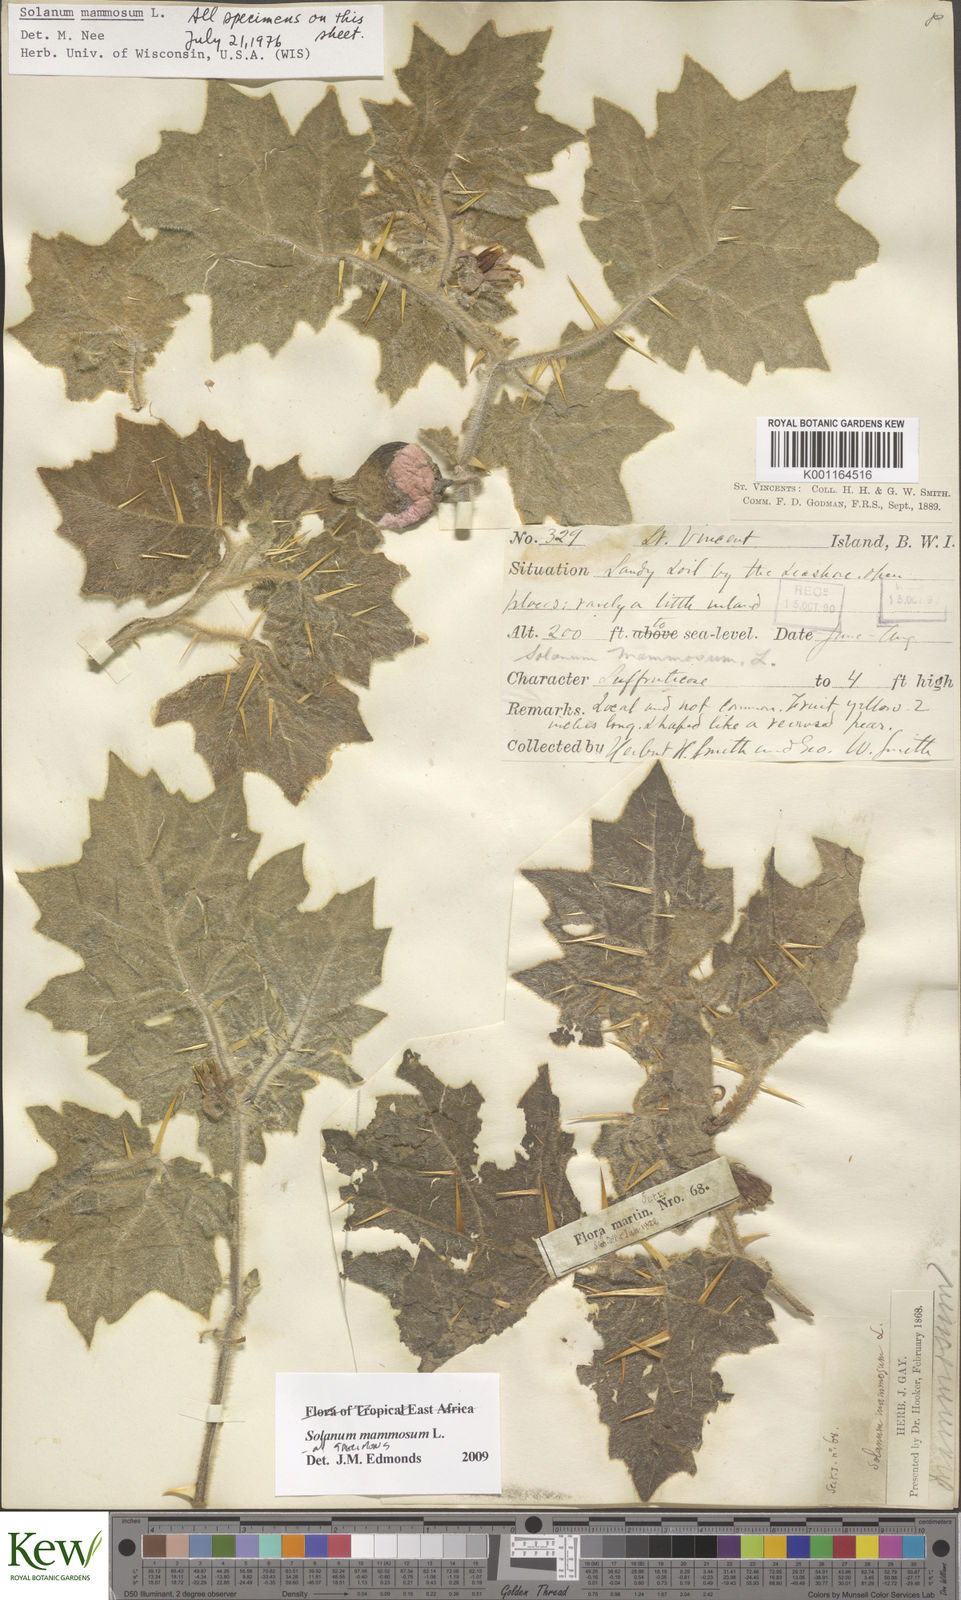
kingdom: Plantae
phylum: Tracheophyta
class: Magnoliopsida
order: Solanales
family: Solanaceae
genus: Solanum
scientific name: Solanum mammosum
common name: Nipple fruit
